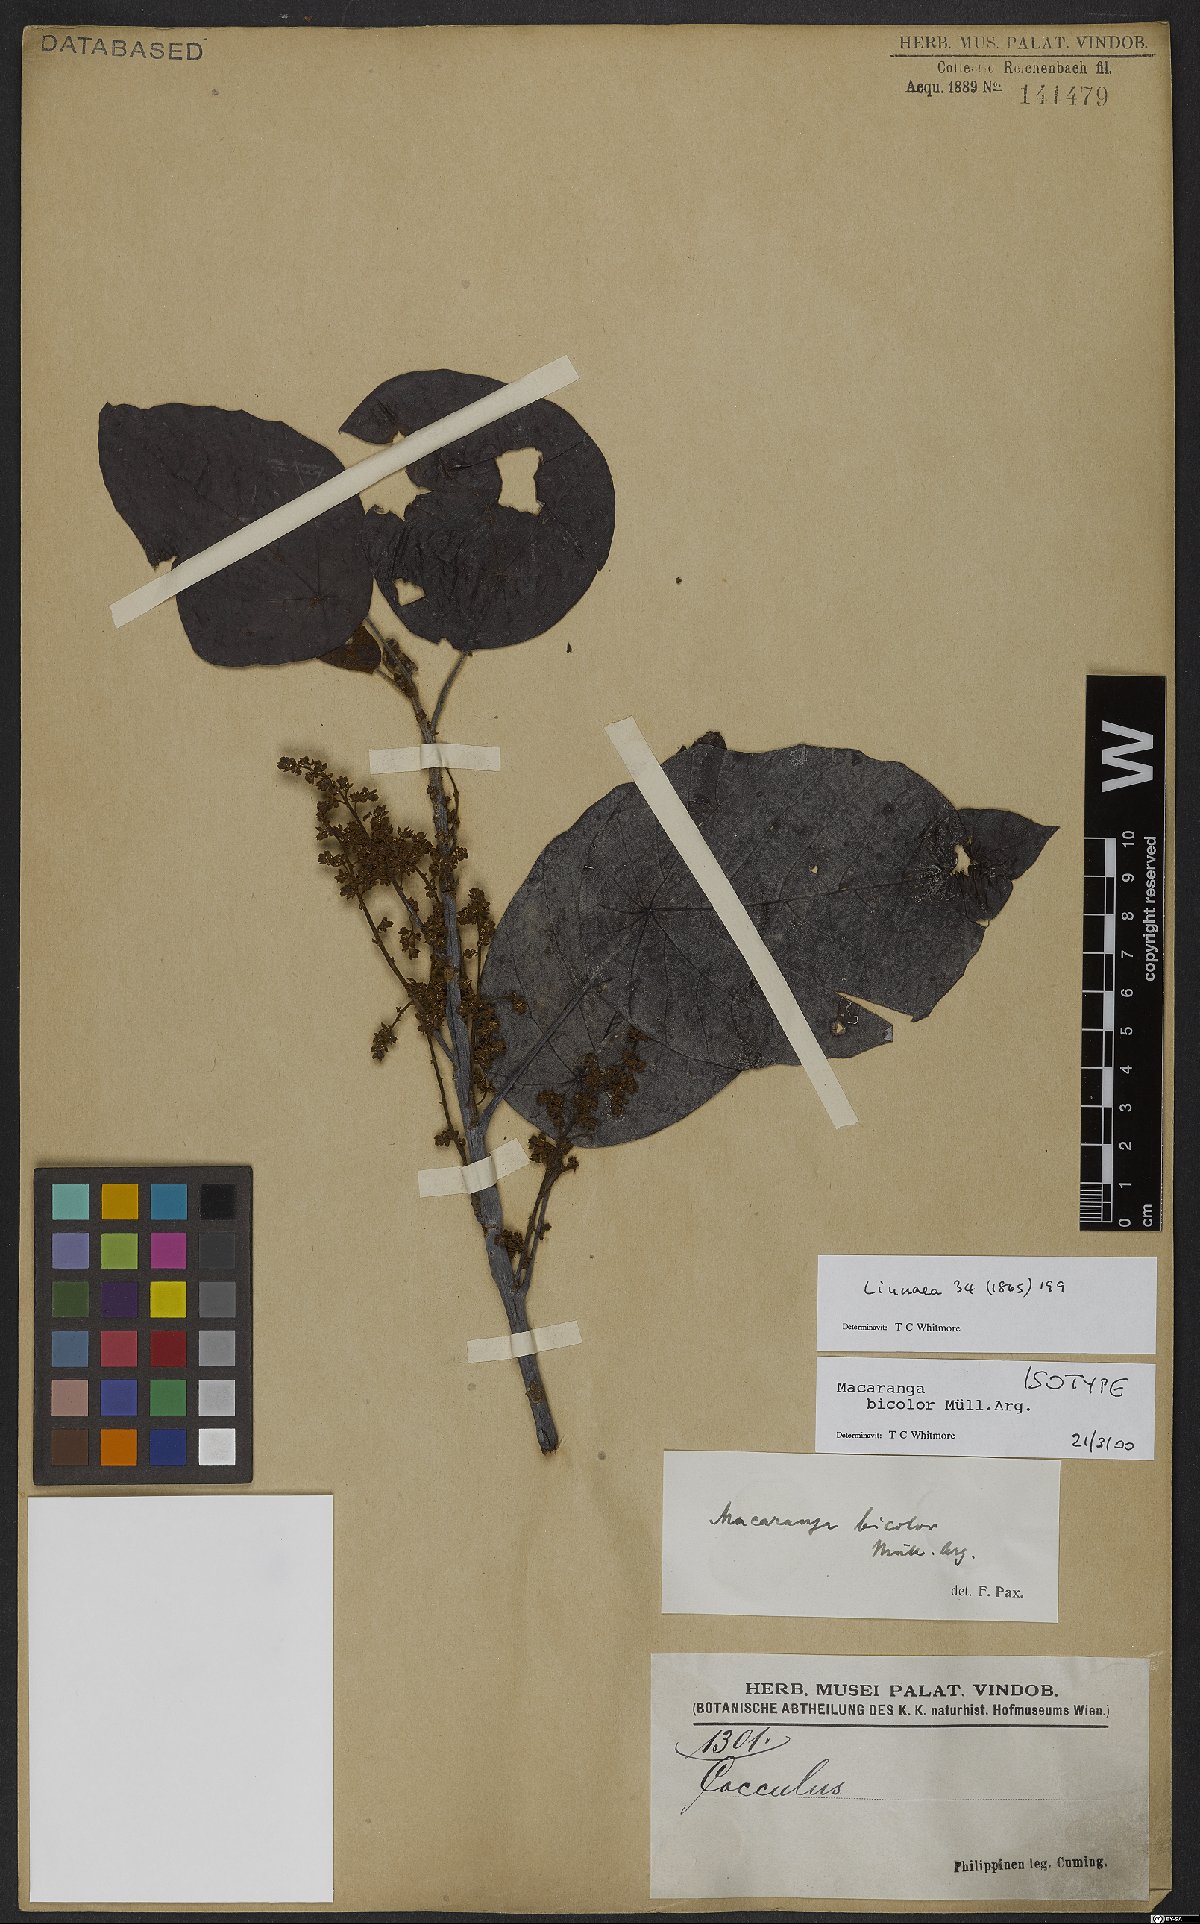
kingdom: Plantae
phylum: Tracheophyta
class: Magnoliopsida
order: Malpighiales
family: Euphorbiaceae
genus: Macaranga
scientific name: Macaranga bicolor
